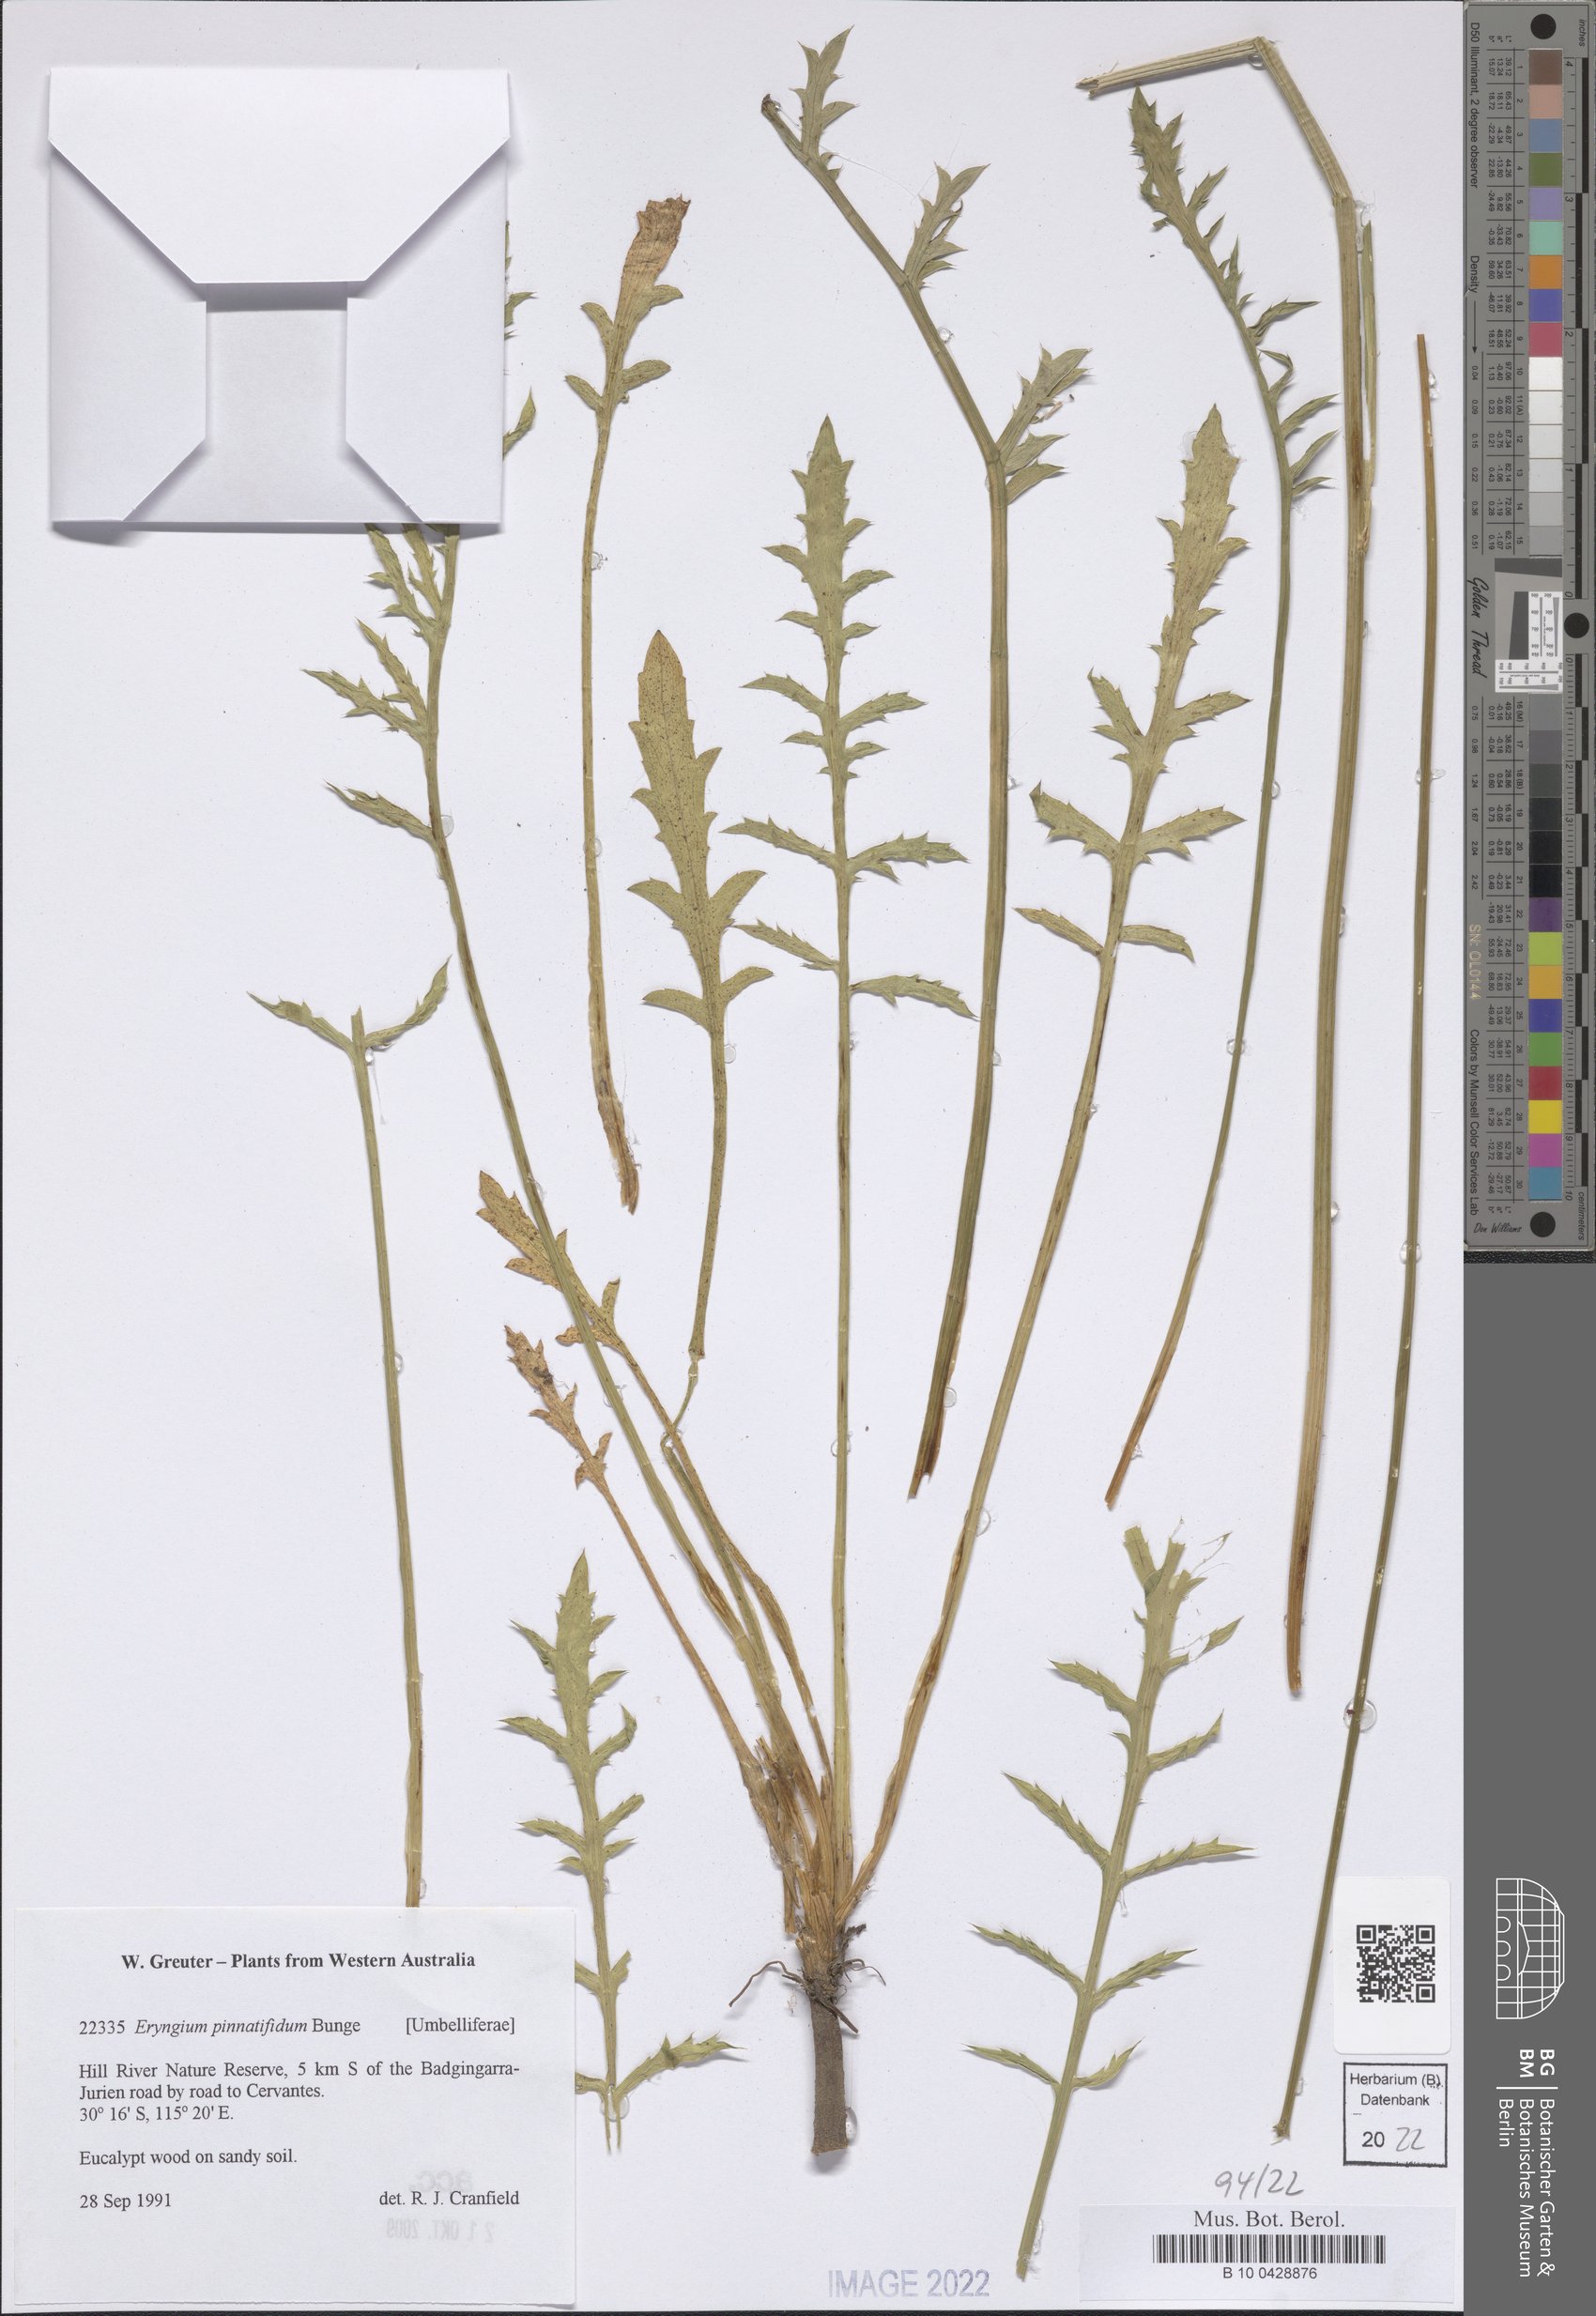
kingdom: Plantae
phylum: Tracheophyta
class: Magnoliopsida
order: Apiales
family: Apiaceae
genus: Eryngium
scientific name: Eryngium pinnatifidum
